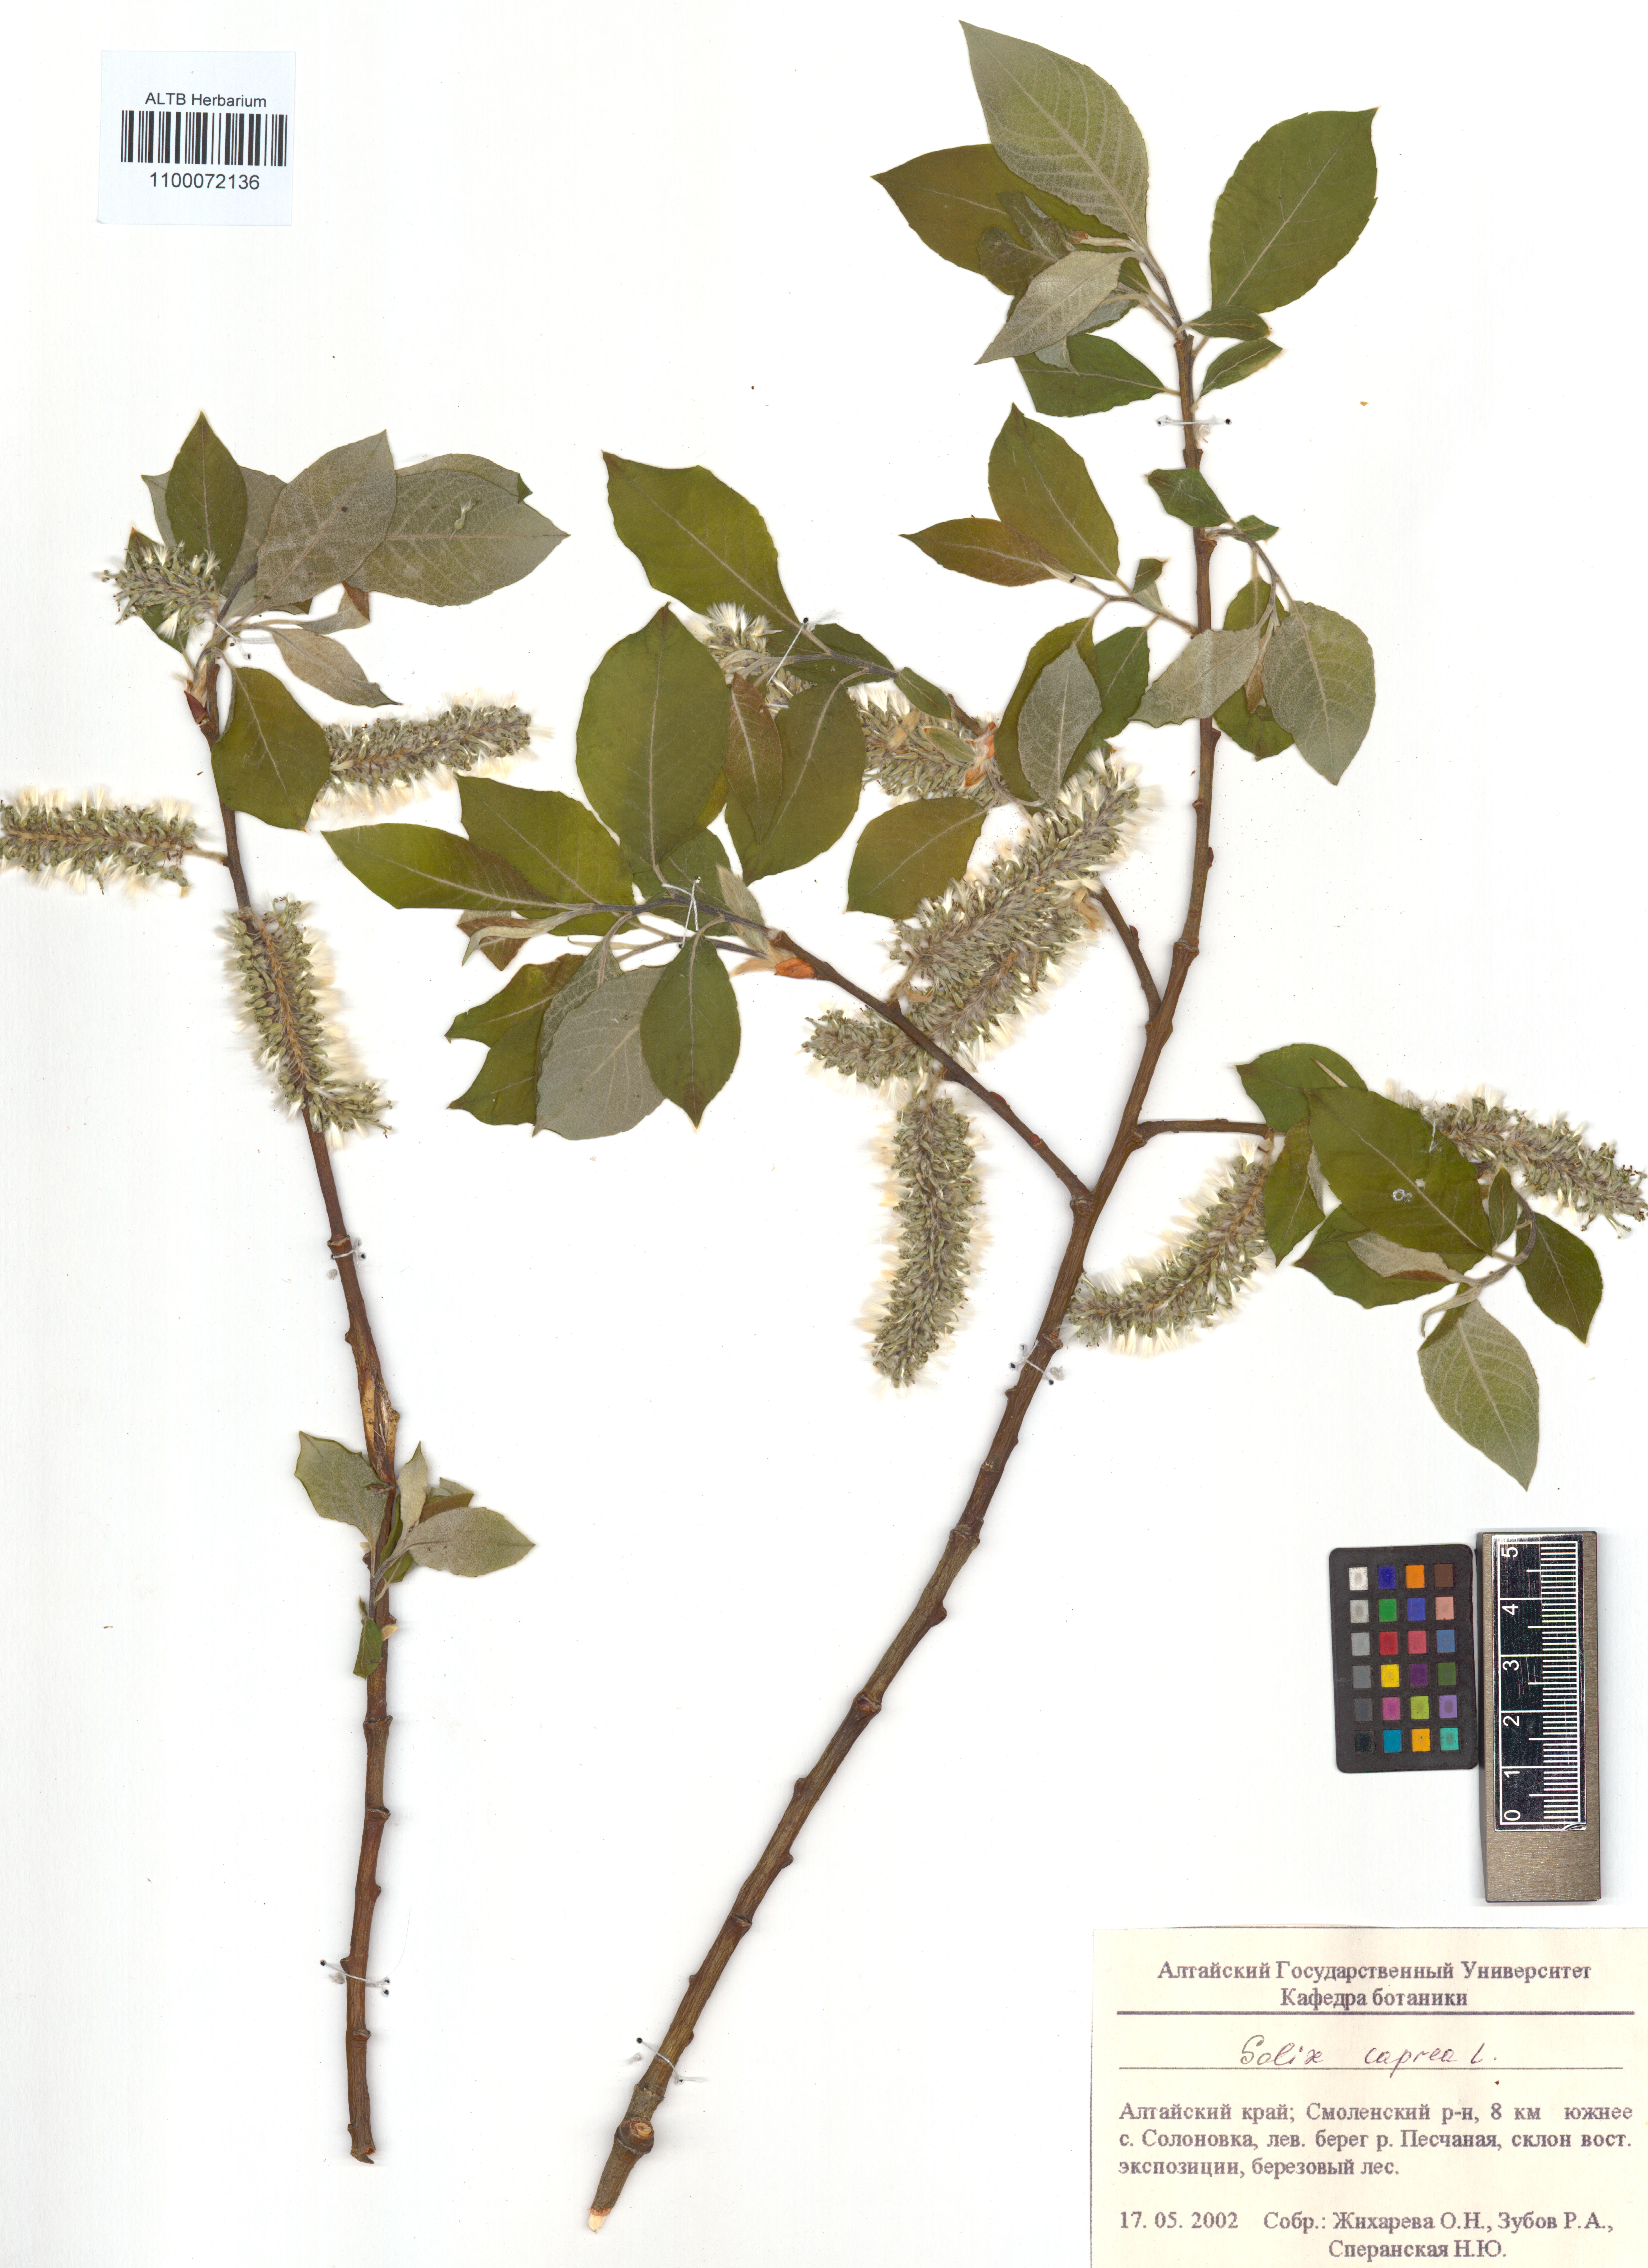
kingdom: Plantae
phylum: Tracheophyta
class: Magnoliopsida
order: Malpighiales
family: Salicaceae
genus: Salix
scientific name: Salix caprea
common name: Goat willow
